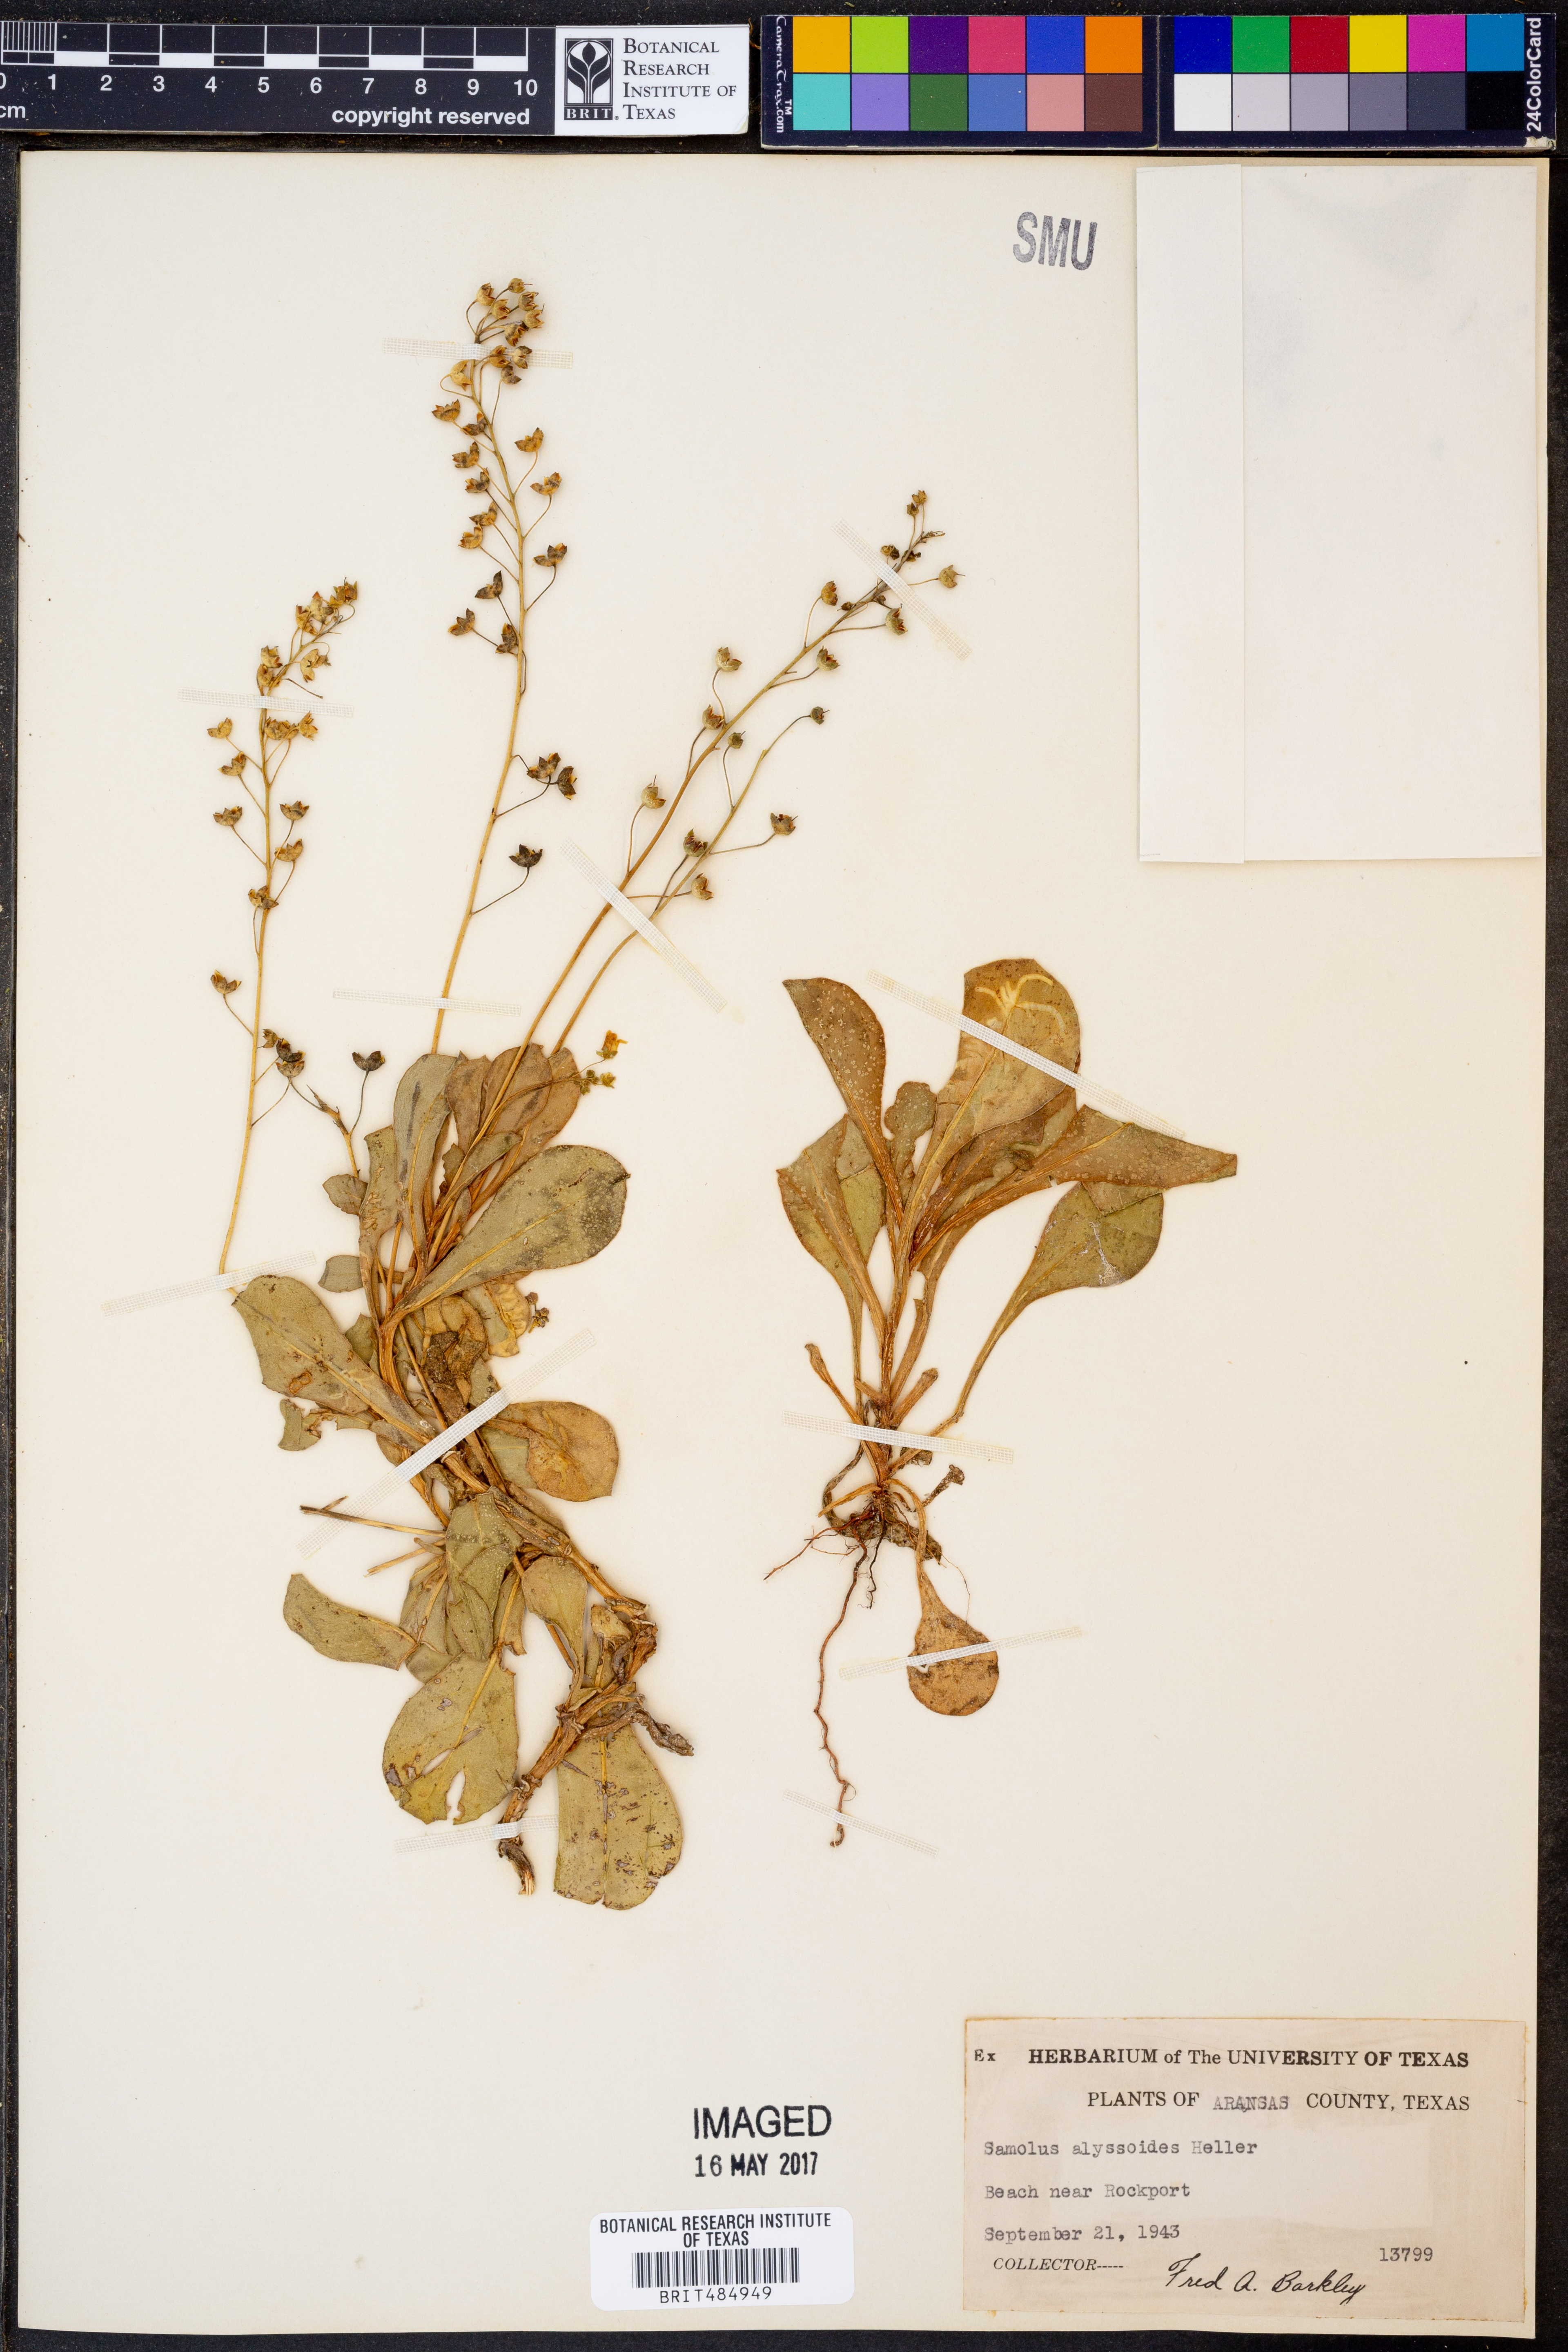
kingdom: Plantae
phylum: Tracheophyta
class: Magnoliopsida
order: Ericales
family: Primulaceae
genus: Samolus
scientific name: Samolus ebracteatus
